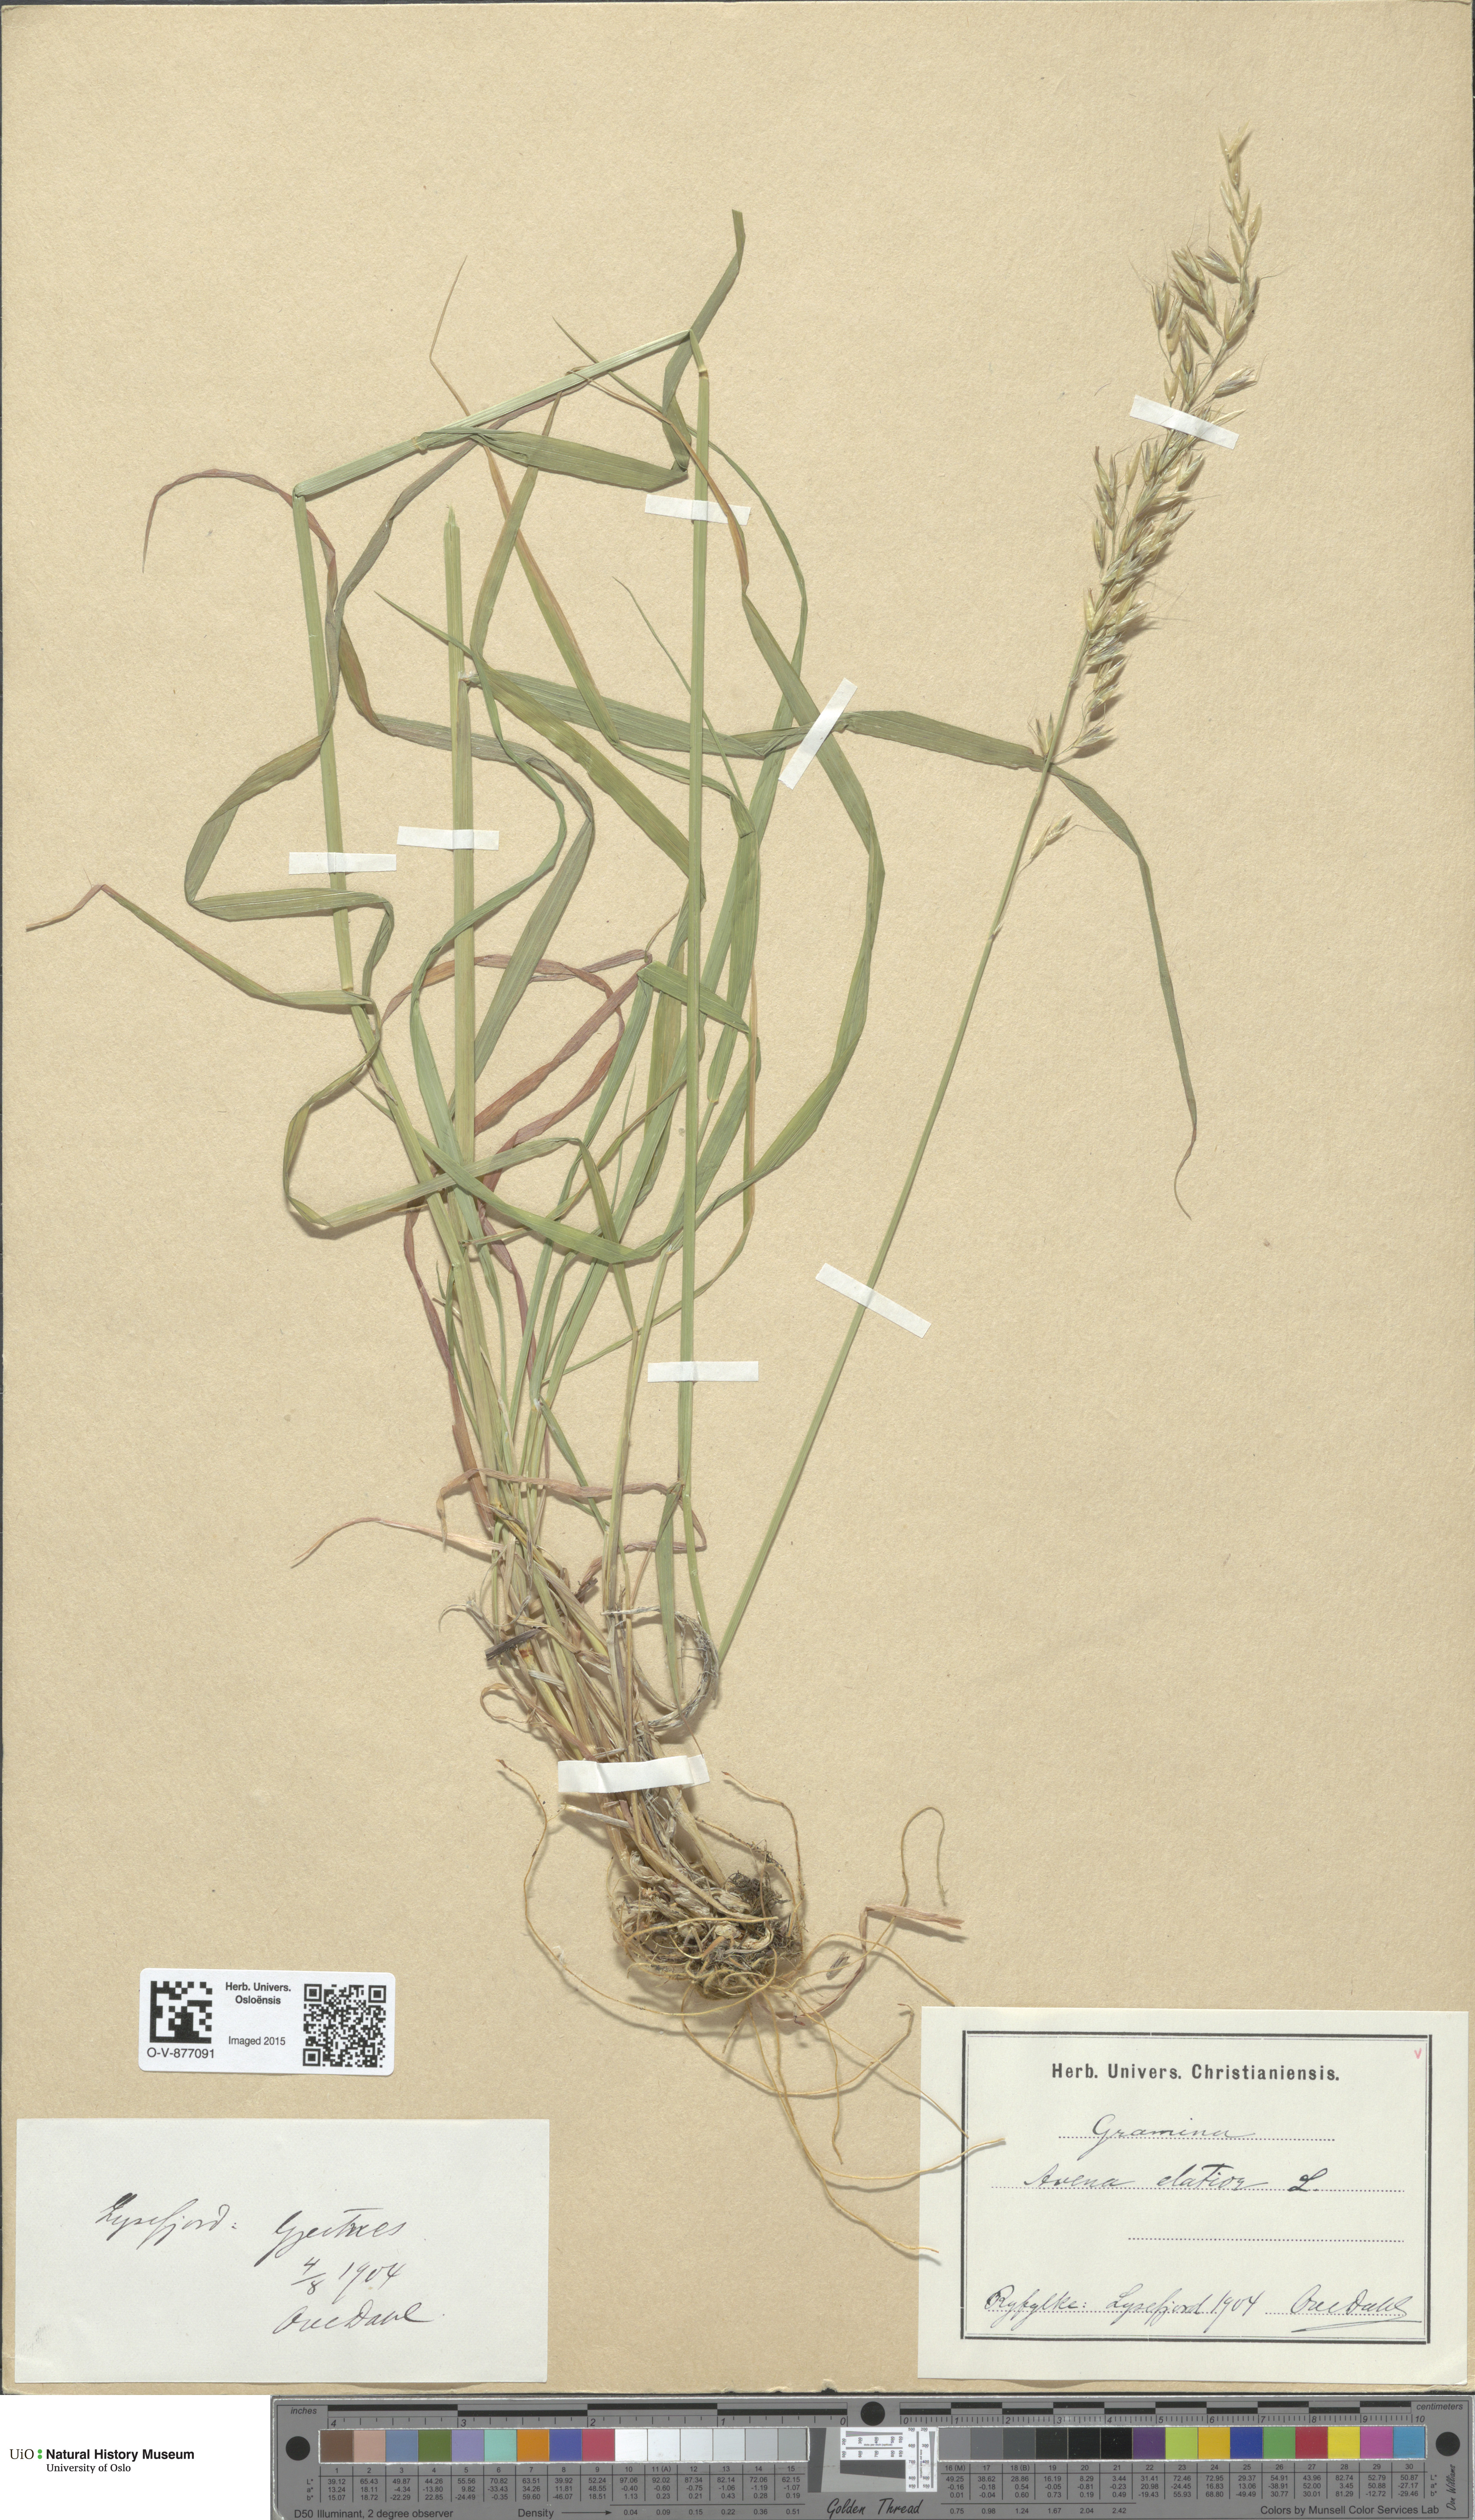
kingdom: Plantae
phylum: Tracheophyta
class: Liliopsida
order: Poales
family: Poaceae
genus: Arrhenatherum
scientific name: Arrhenatherum elatius
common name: Tall oatgrass
